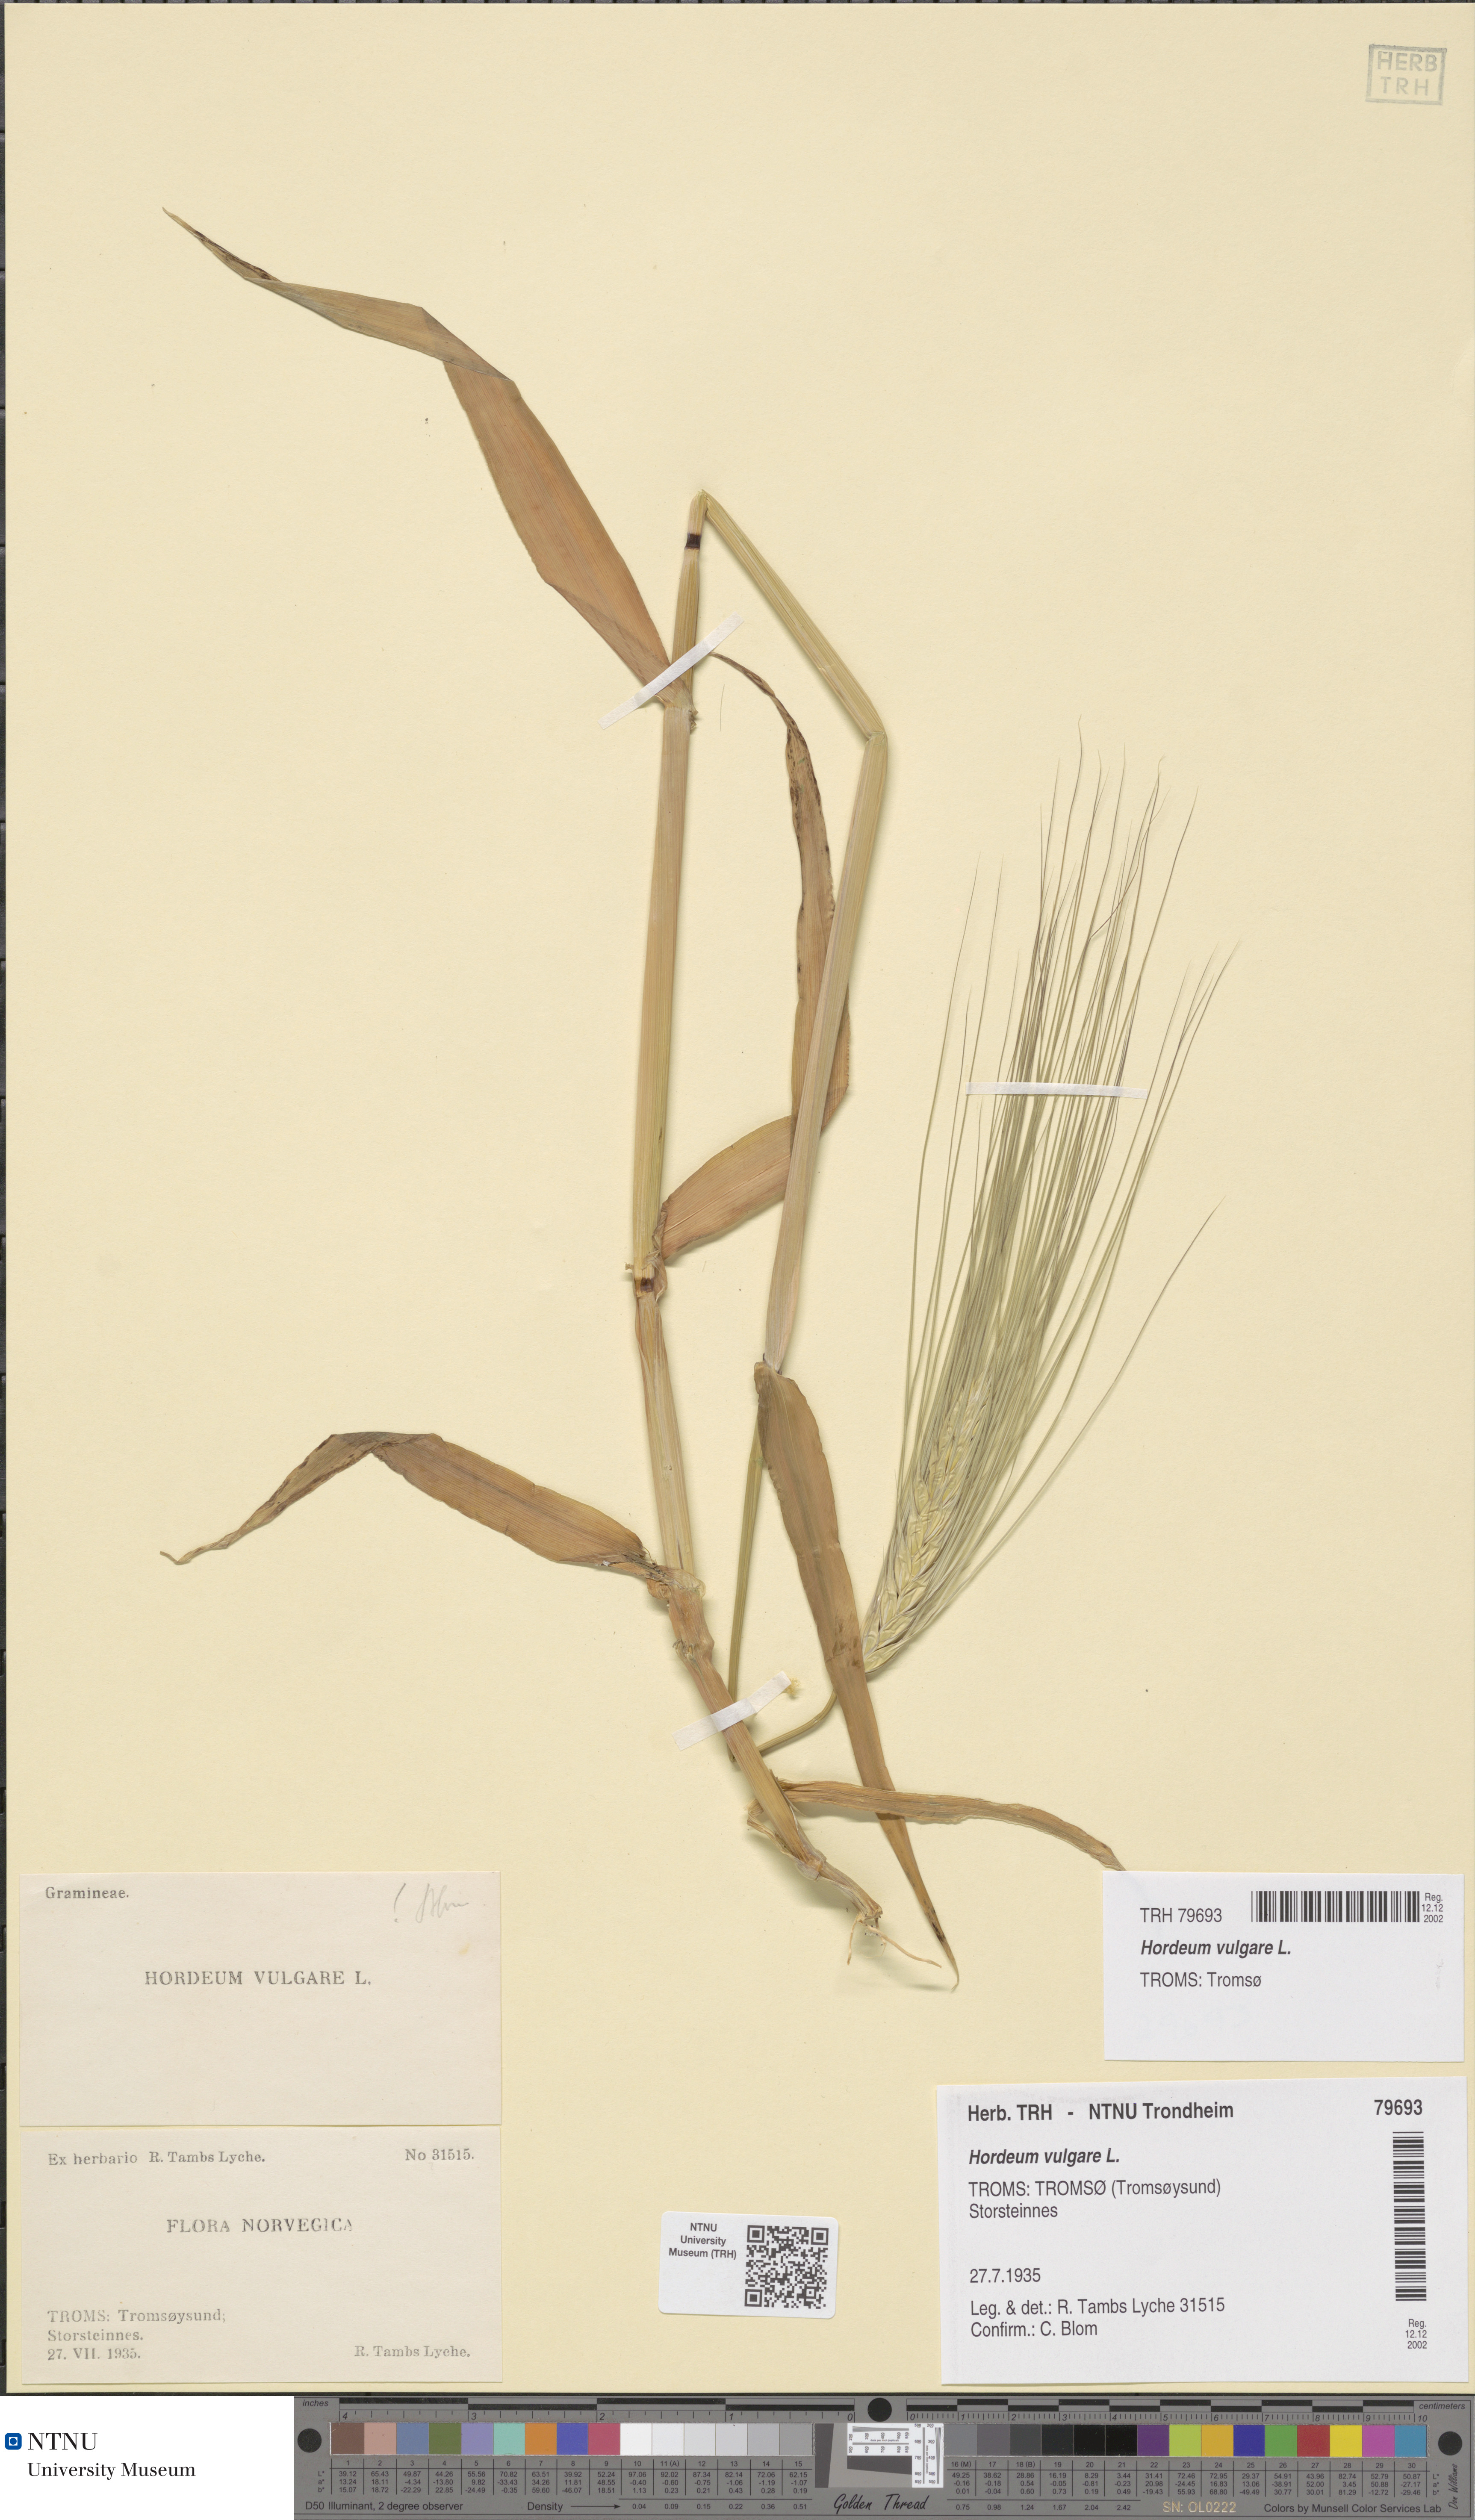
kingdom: Plantae
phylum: Tracheophyta
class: Liliopsida
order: Poales
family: Poaceae
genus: Hordeum
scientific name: Hordeum vulgare
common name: Common barley
